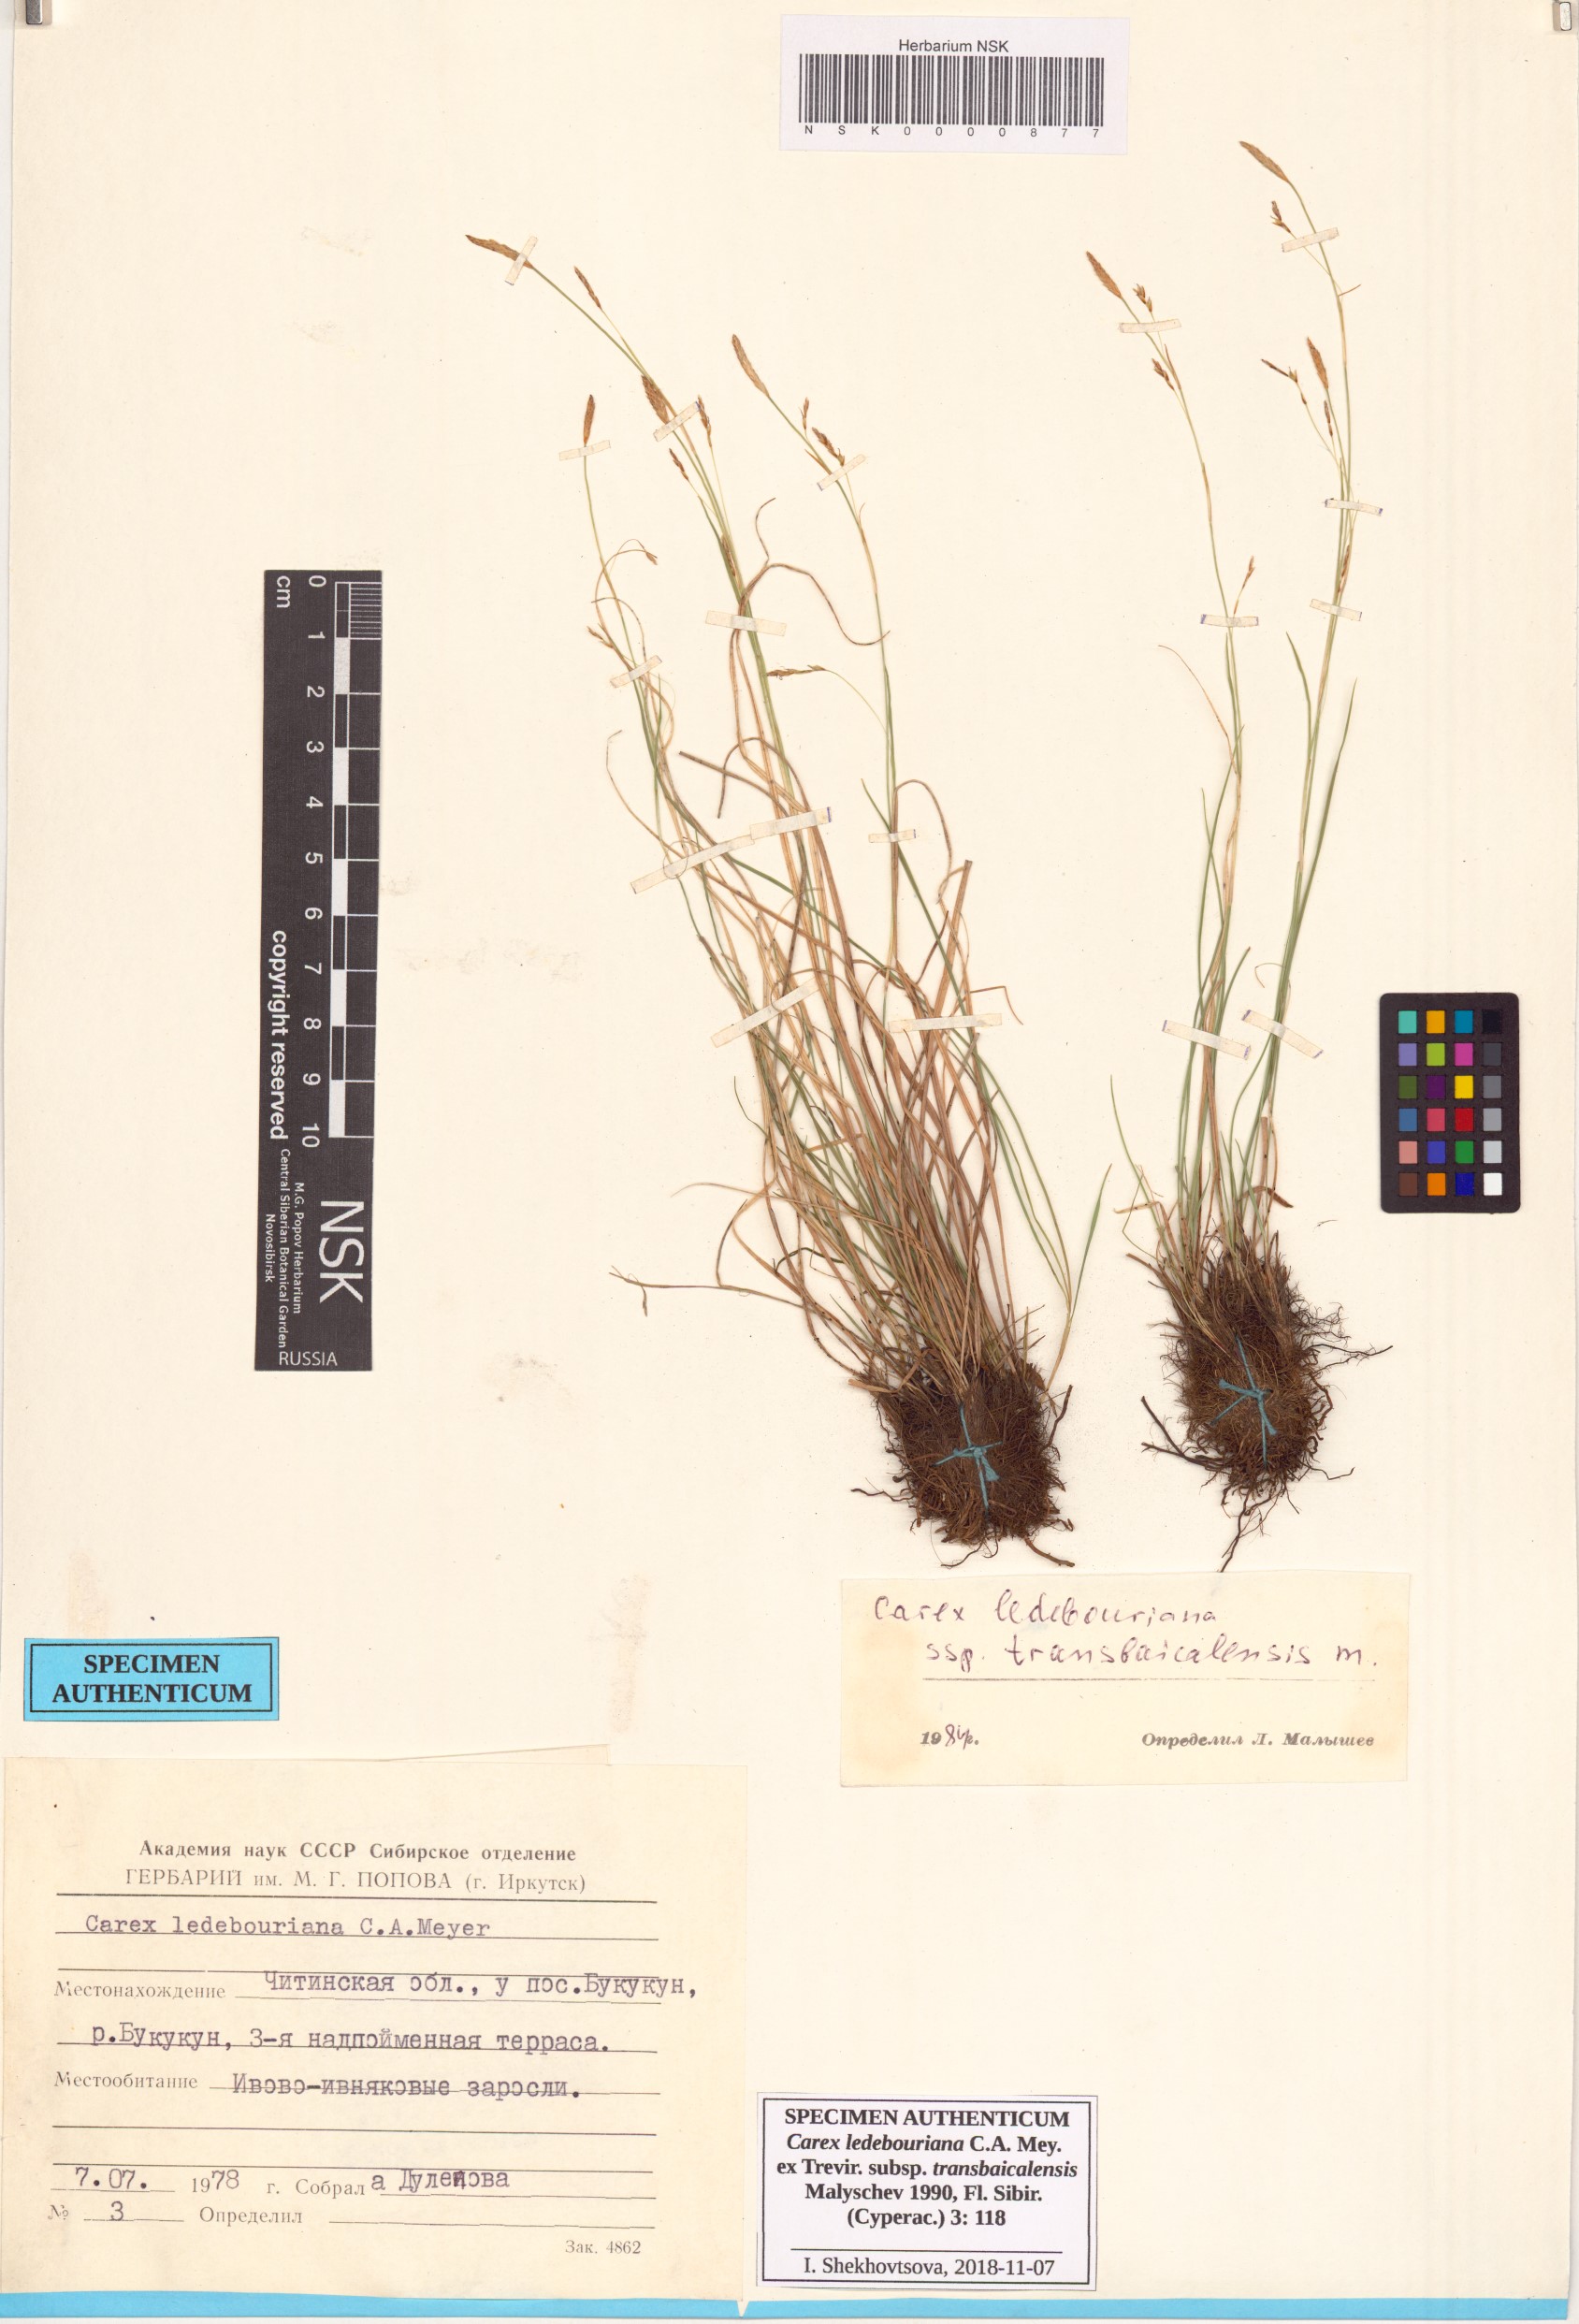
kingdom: Plantae
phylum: Tracheophyta
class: Liliopsida
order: Poales
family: Cyperaceae
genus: Carex
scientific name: Carex ledebouriana
